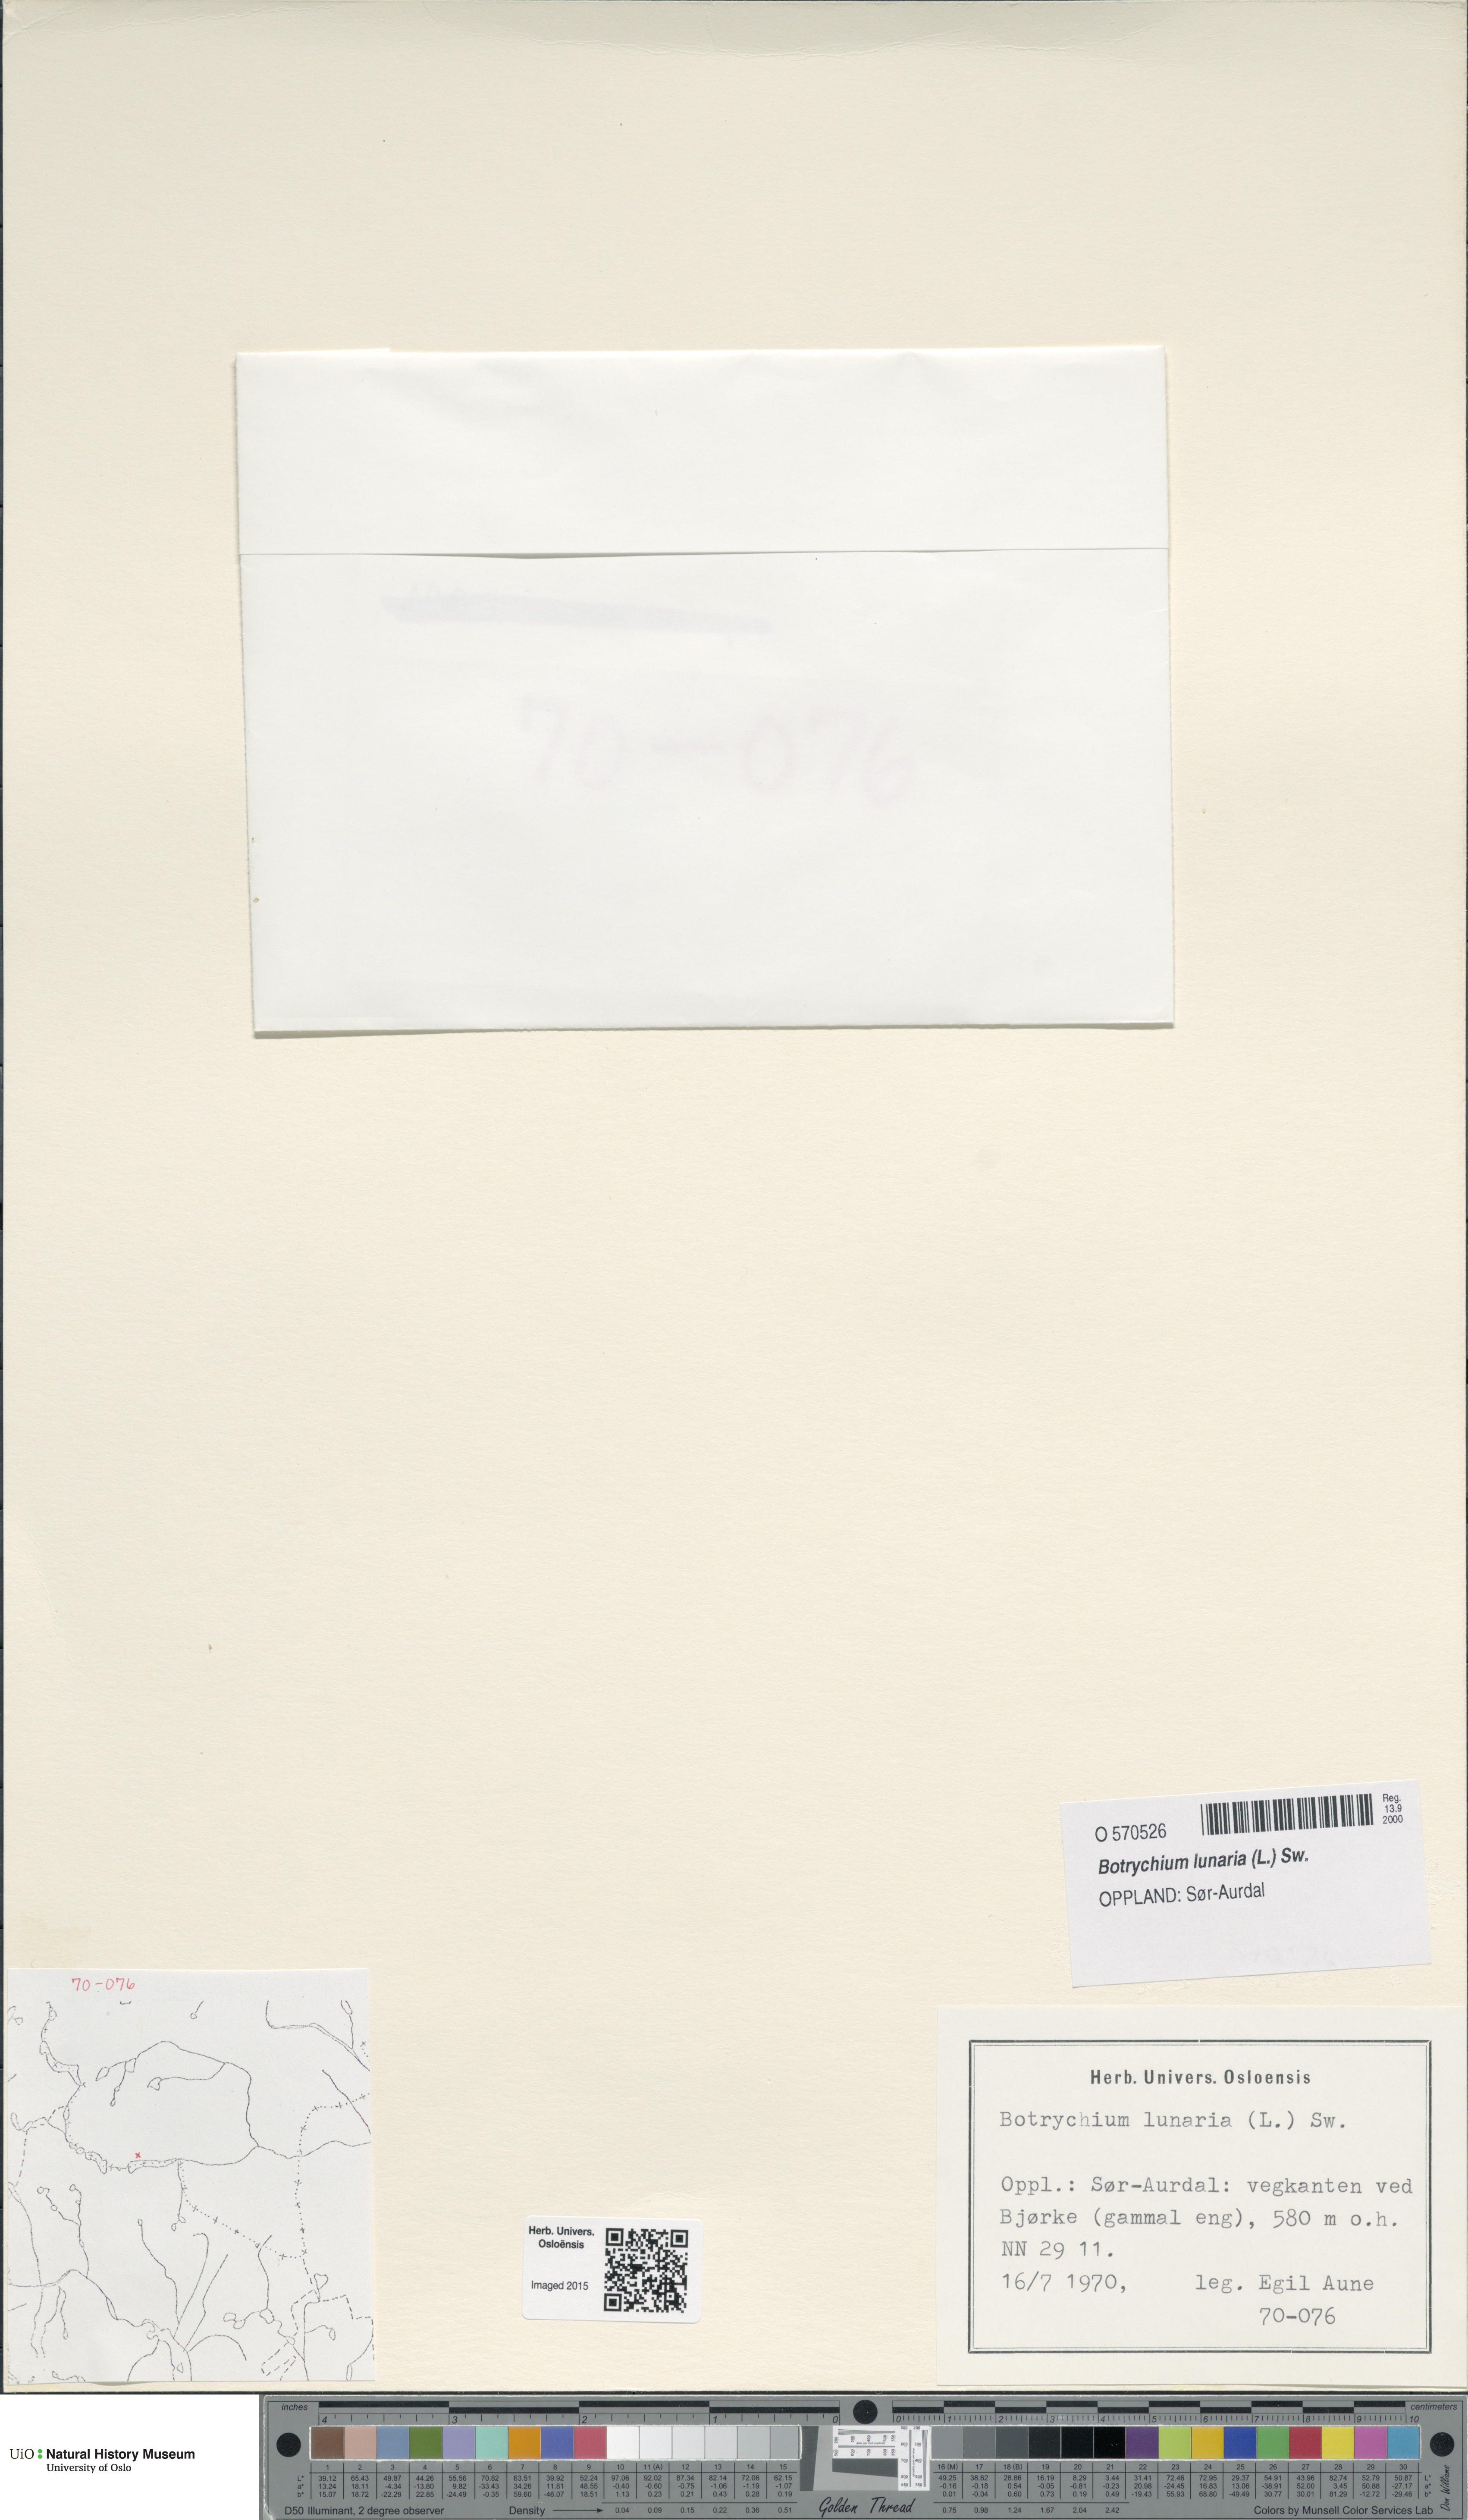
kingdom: Plantae
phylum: Tracheophyta
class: Polypodiopsida
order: Ophioglossales
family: Ophioglossaceae
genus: Botrychium
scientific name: Botrychium lunaria
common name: Moonwort
